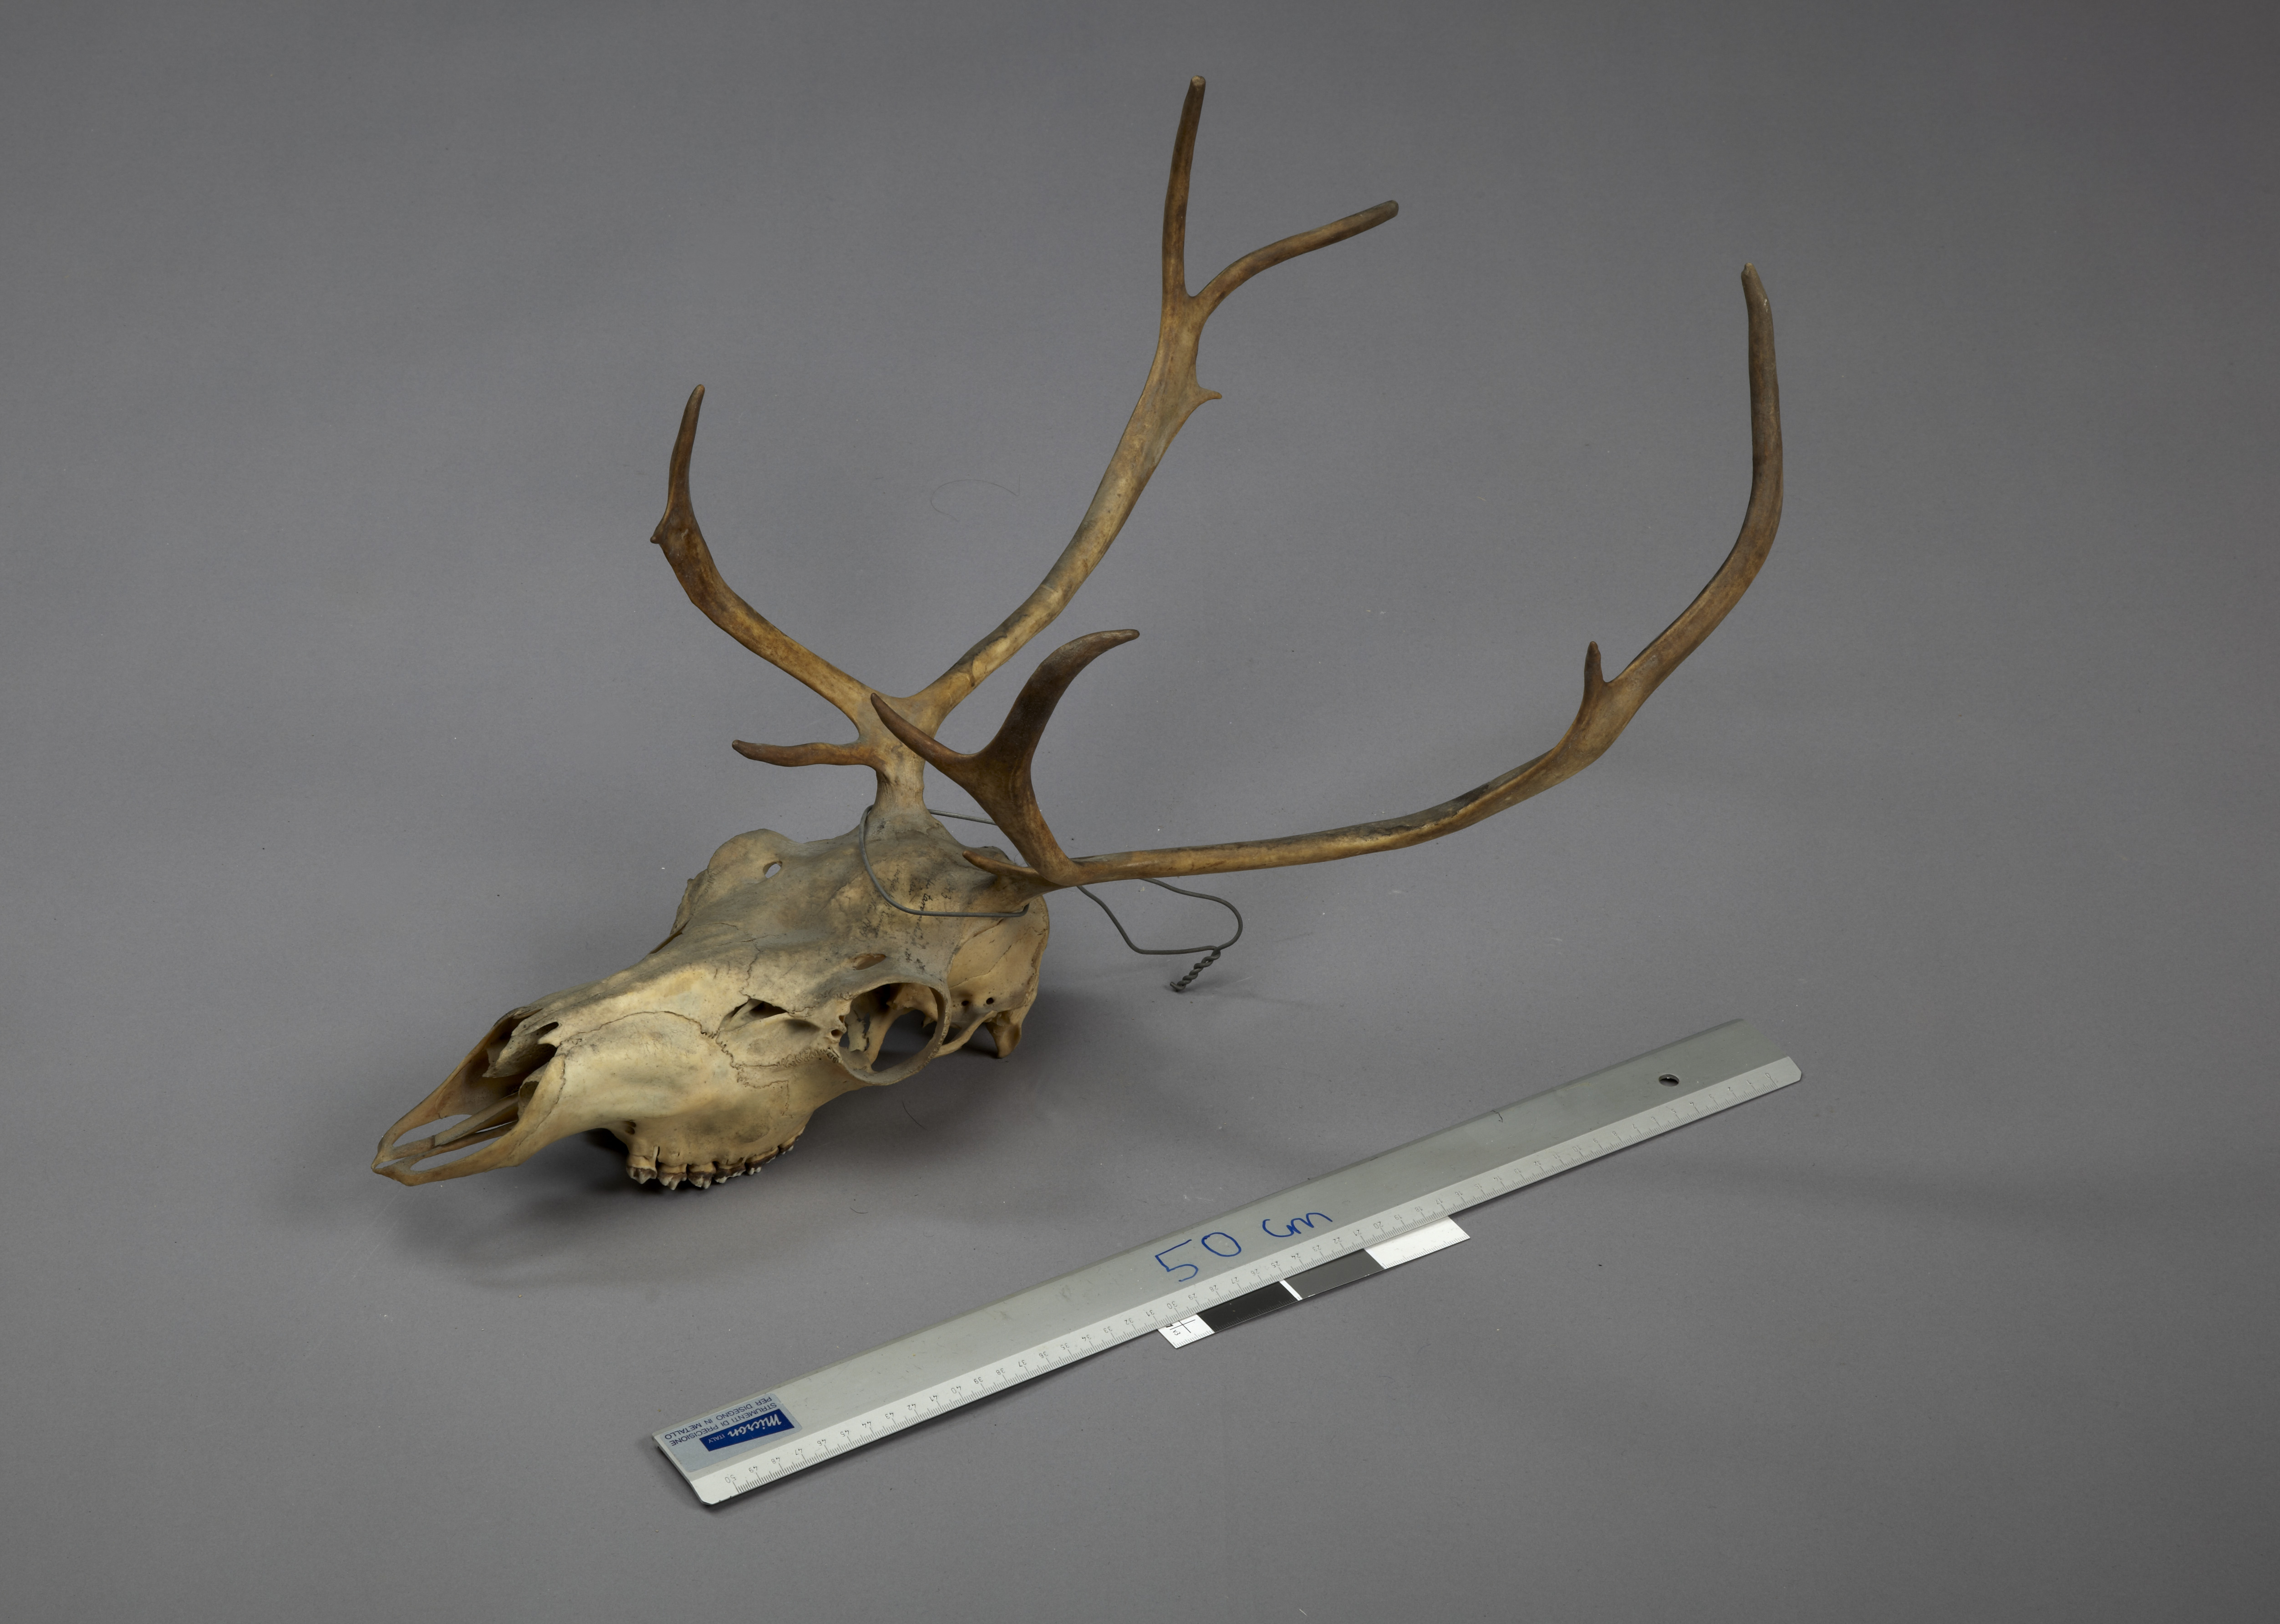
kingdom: Animalia
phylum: Chordata
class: Mammalia
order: Artiodactyla
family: Cervidae
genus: Rangifer
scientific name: Rangifer tarandus
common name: Reindeer
